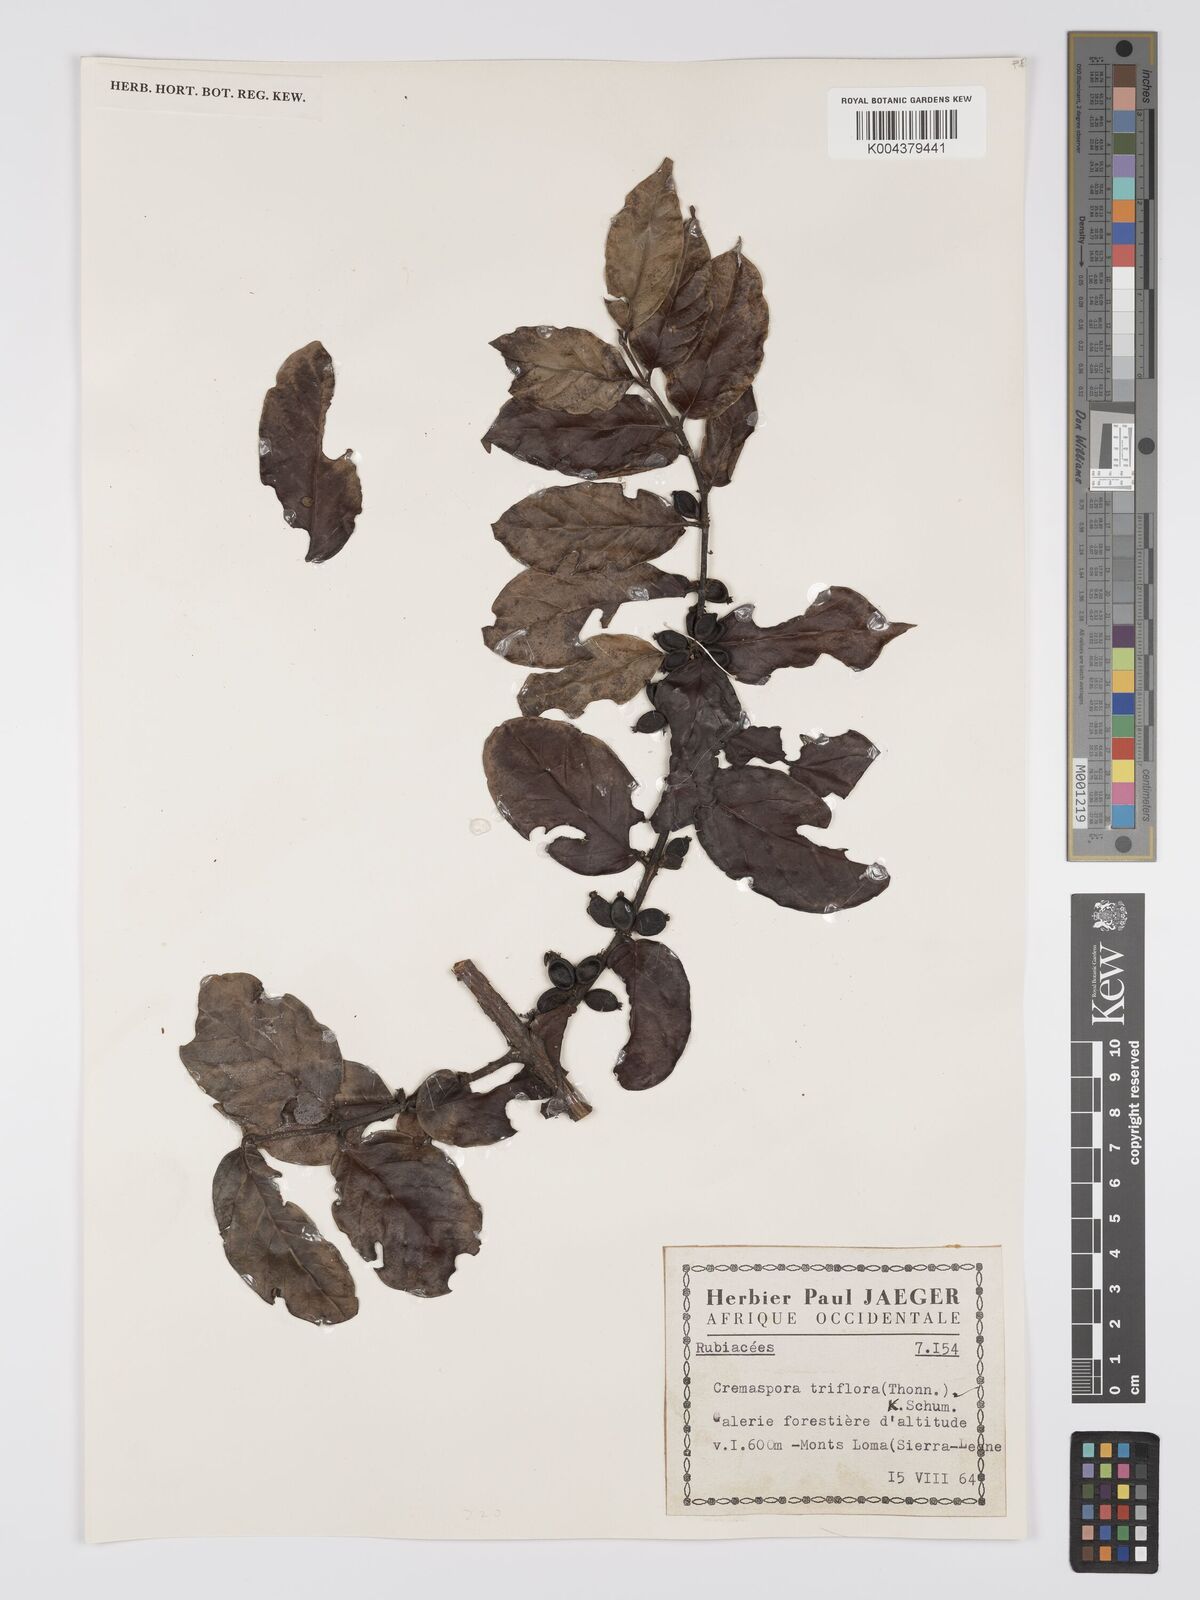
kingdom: Plantae
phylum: Tracheophyta
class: Magnoliopsida
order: Gentianales
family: Rubiaceae
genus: Cremaspora
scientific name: Cremaspora triflora
